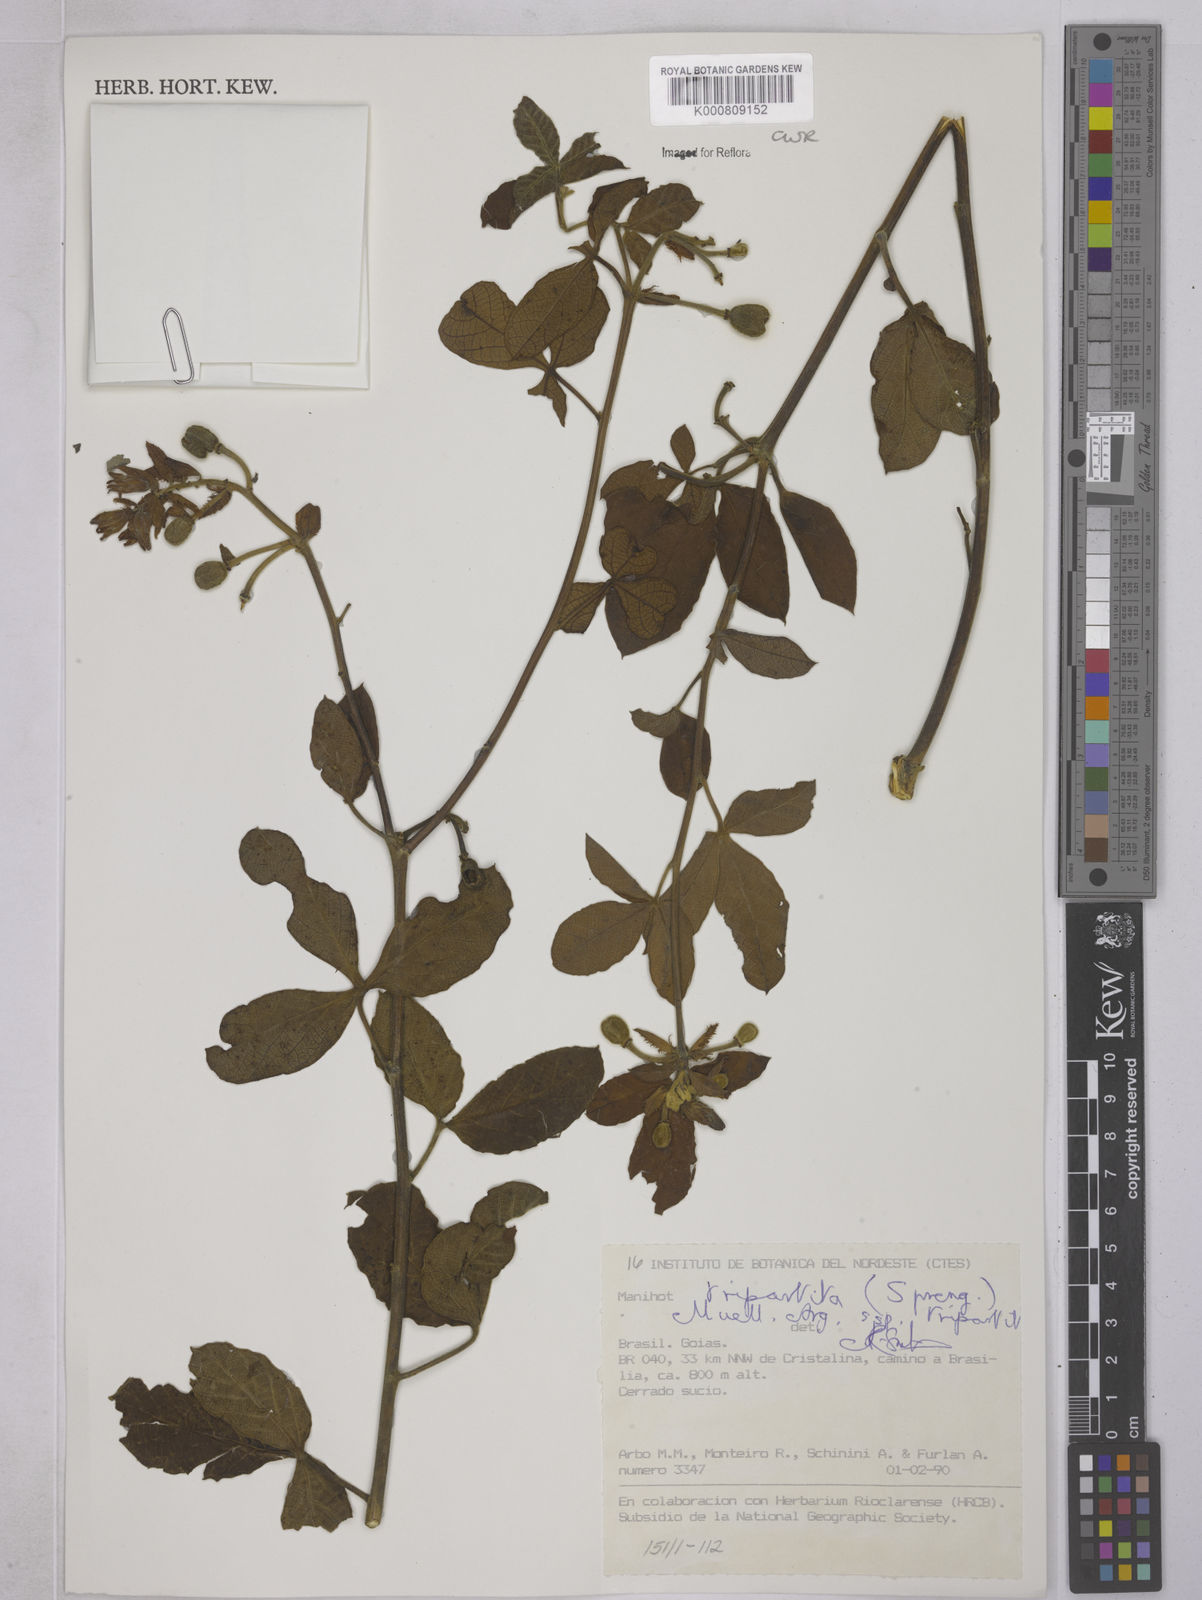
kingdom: Plantae
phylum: Tracheophyta
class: Magnoliopsida
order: Malpighiales
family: Euphorbiaceae
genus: Manihot
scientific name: Manihot
